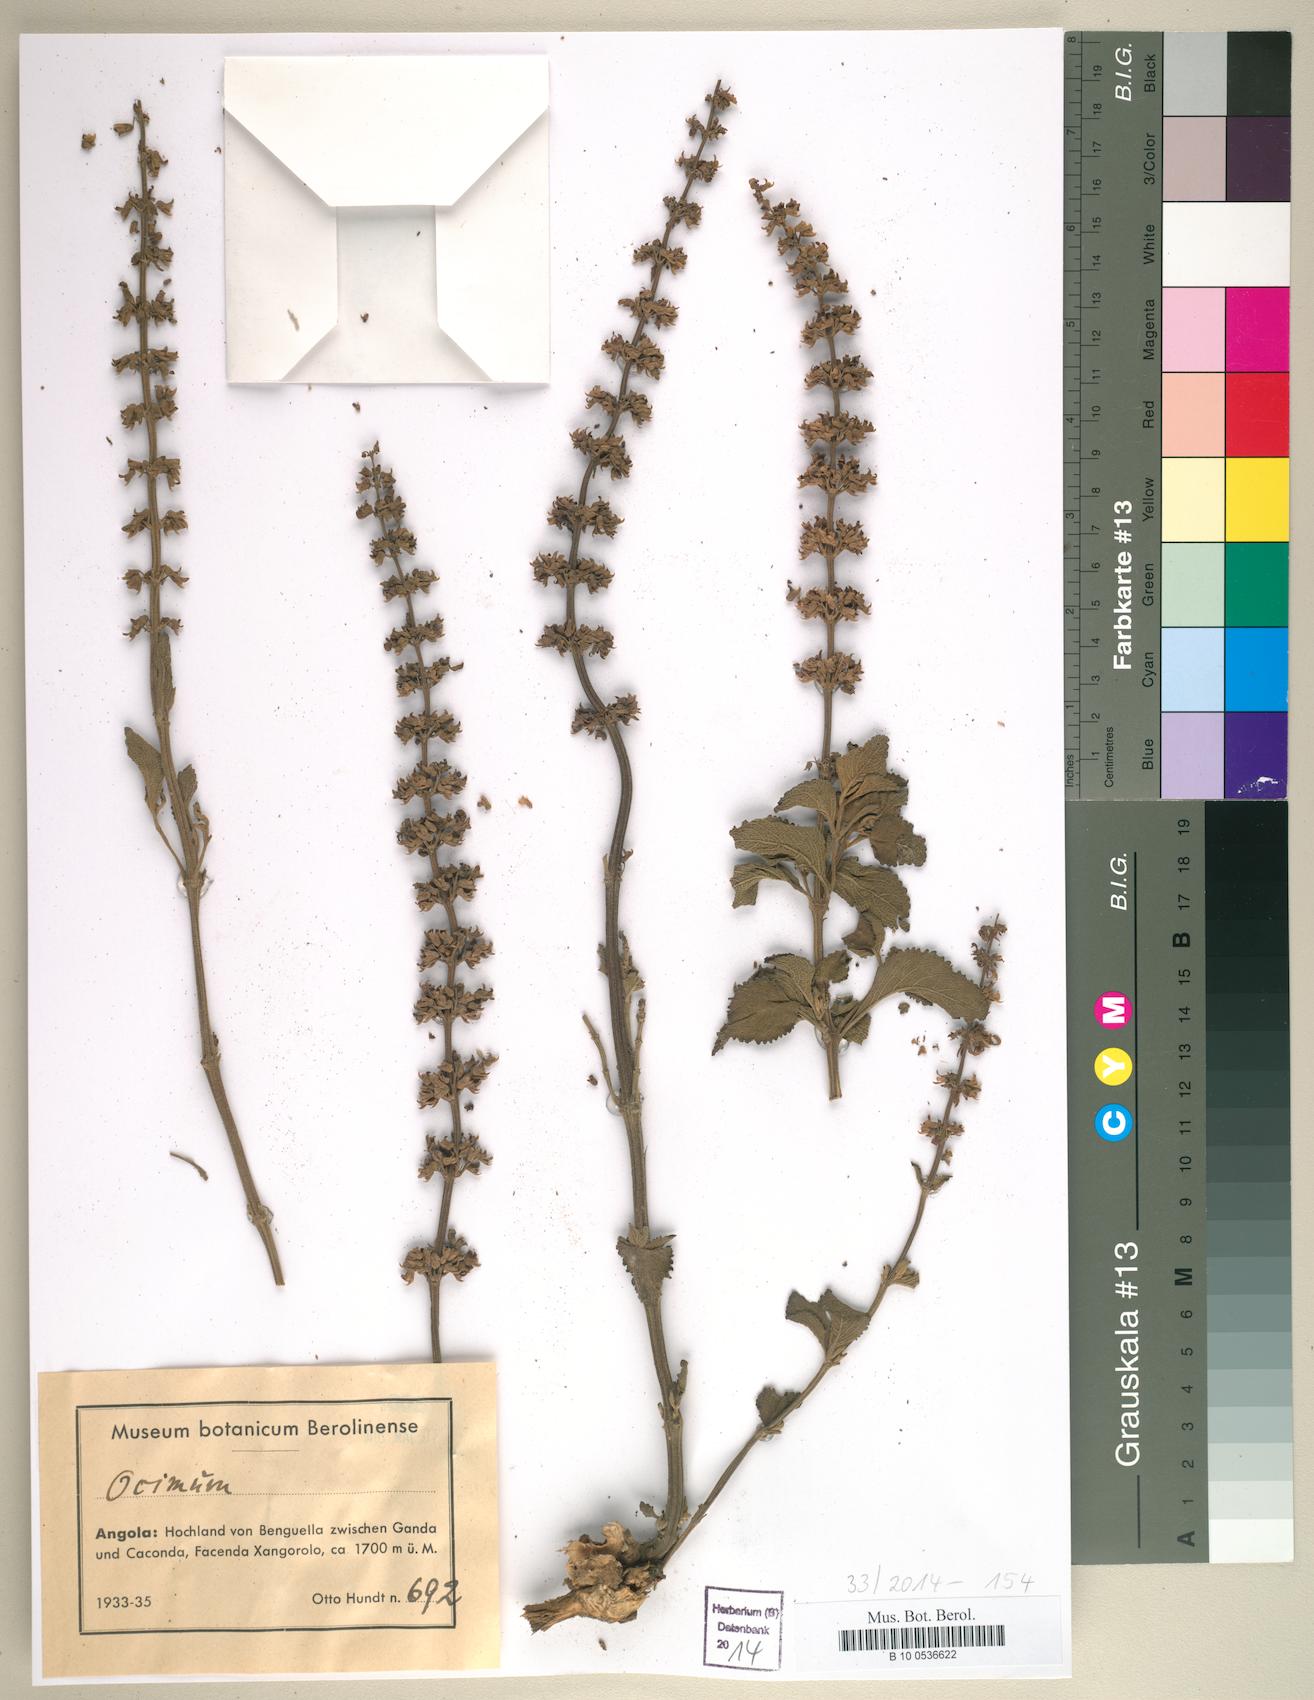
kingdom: Plantae
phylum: Tracheophyta
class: Magnoliopsida
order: Lamiales
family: Lamiaceae
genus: Ocimum
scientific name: Ocimum
